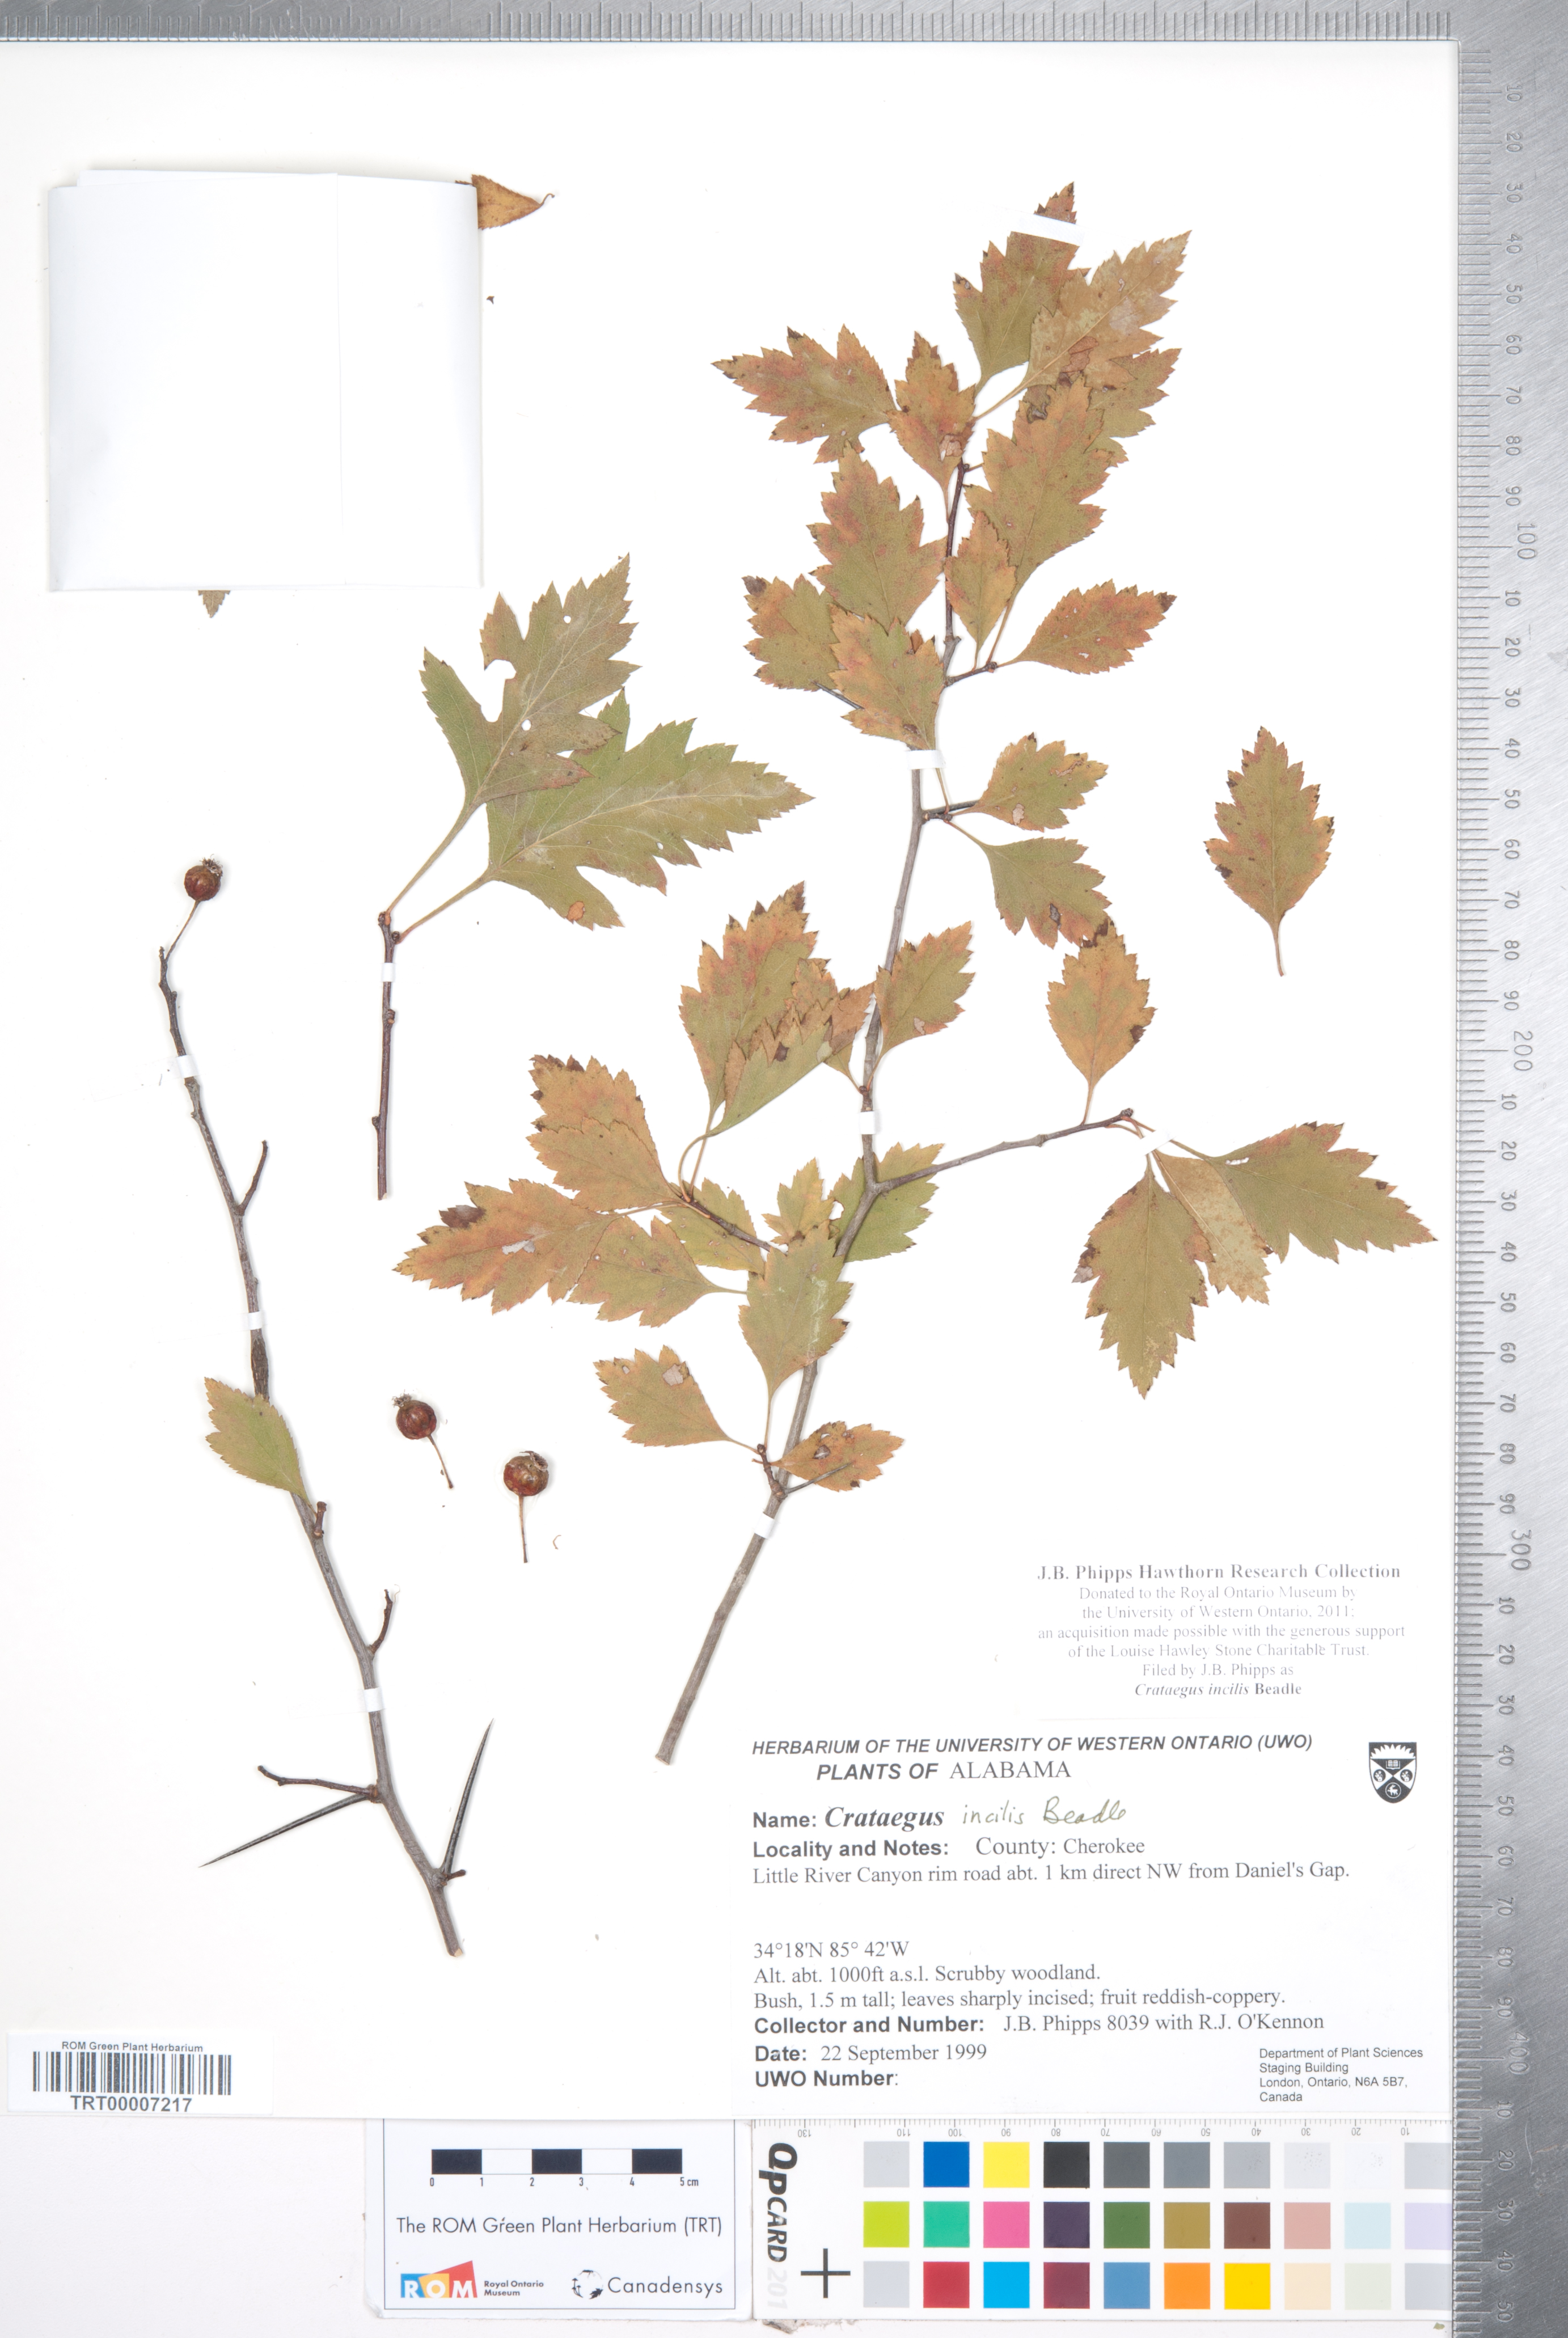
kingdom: Plantae
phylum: Tracheophyta
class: Magnoliopsida
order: Rosales
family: Rosaceae
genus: Crataegus
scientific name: Crataegus pulcherrima
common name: Beautiful hawthorn
